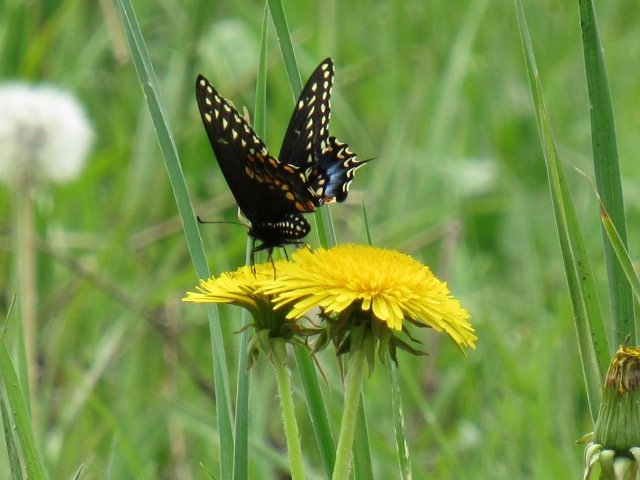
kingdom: Animalia
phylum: Arthropoda
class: Insecta
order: Lepidoptera
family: Papilionidae
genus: Papilio
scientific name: Papilio polyxenes
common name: Black Swallowtail
